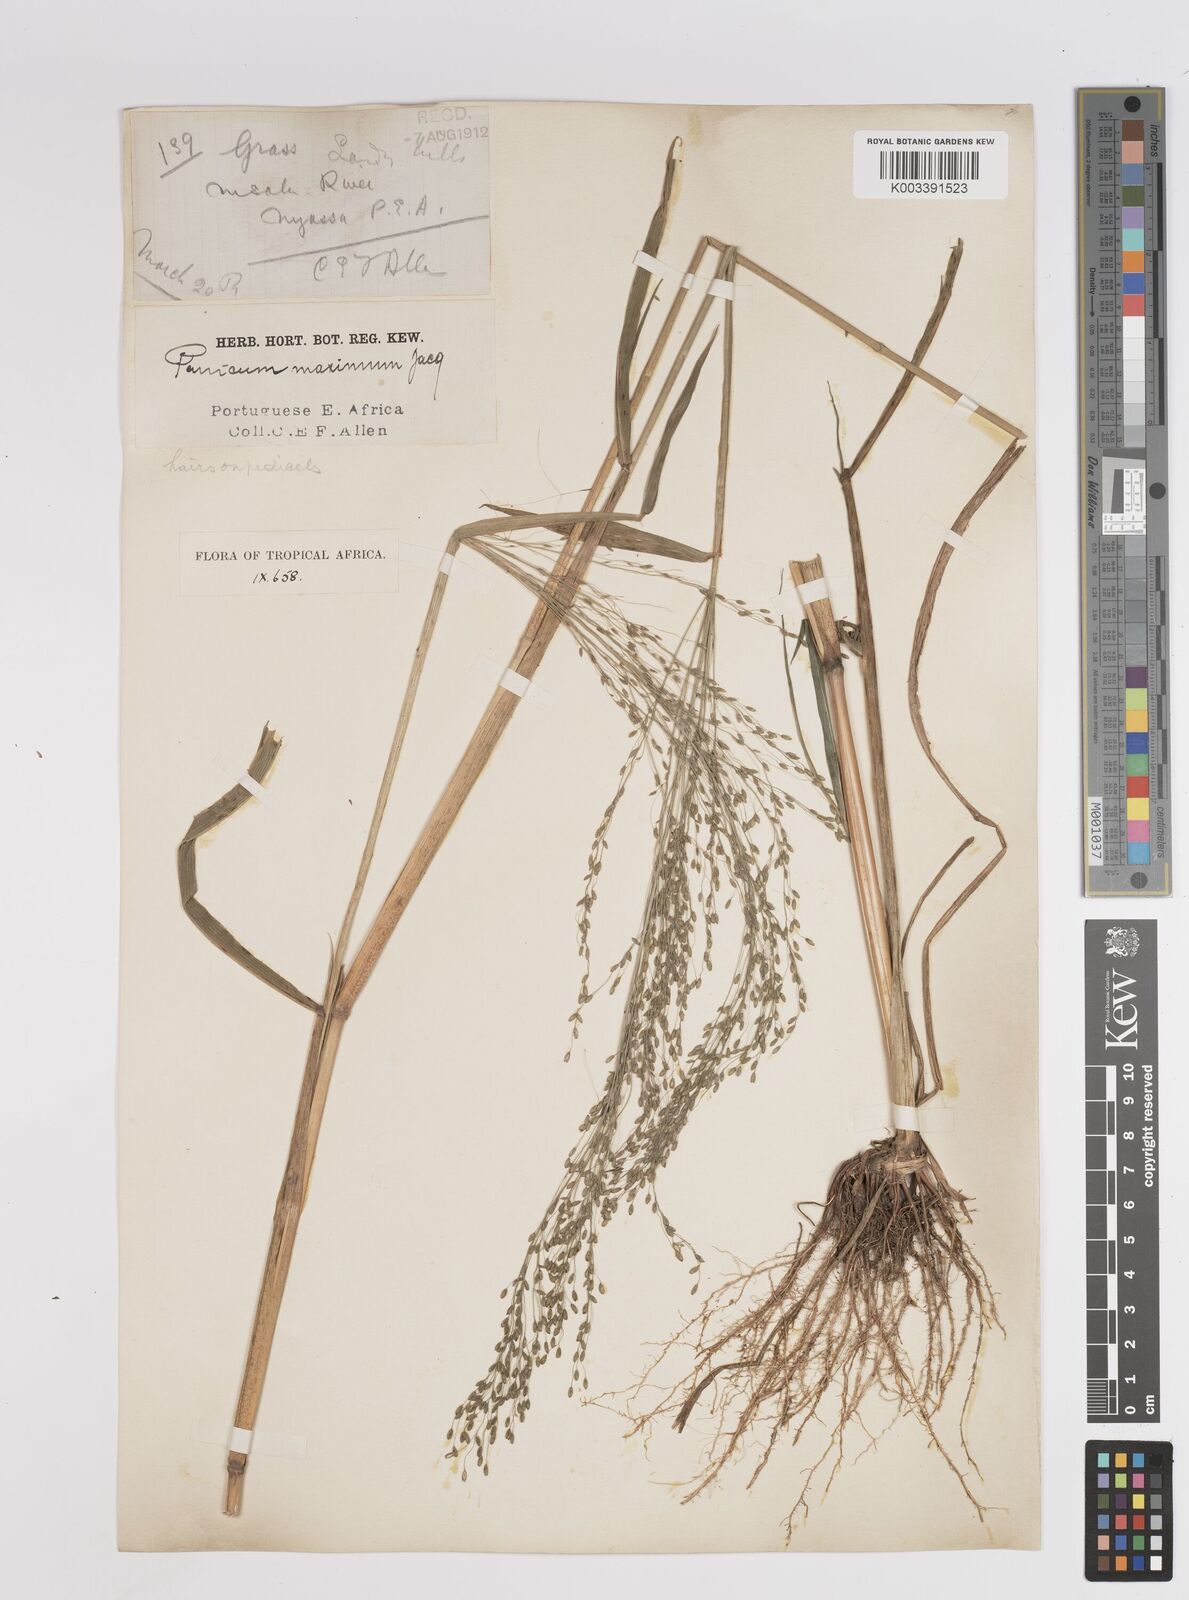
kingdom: Plantae
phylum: Tracheophyta
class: Liliopsida
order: Poales
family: Poaceae
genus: Megathyrsus
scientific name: Megathyrsus maximus
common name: Guineagrass
